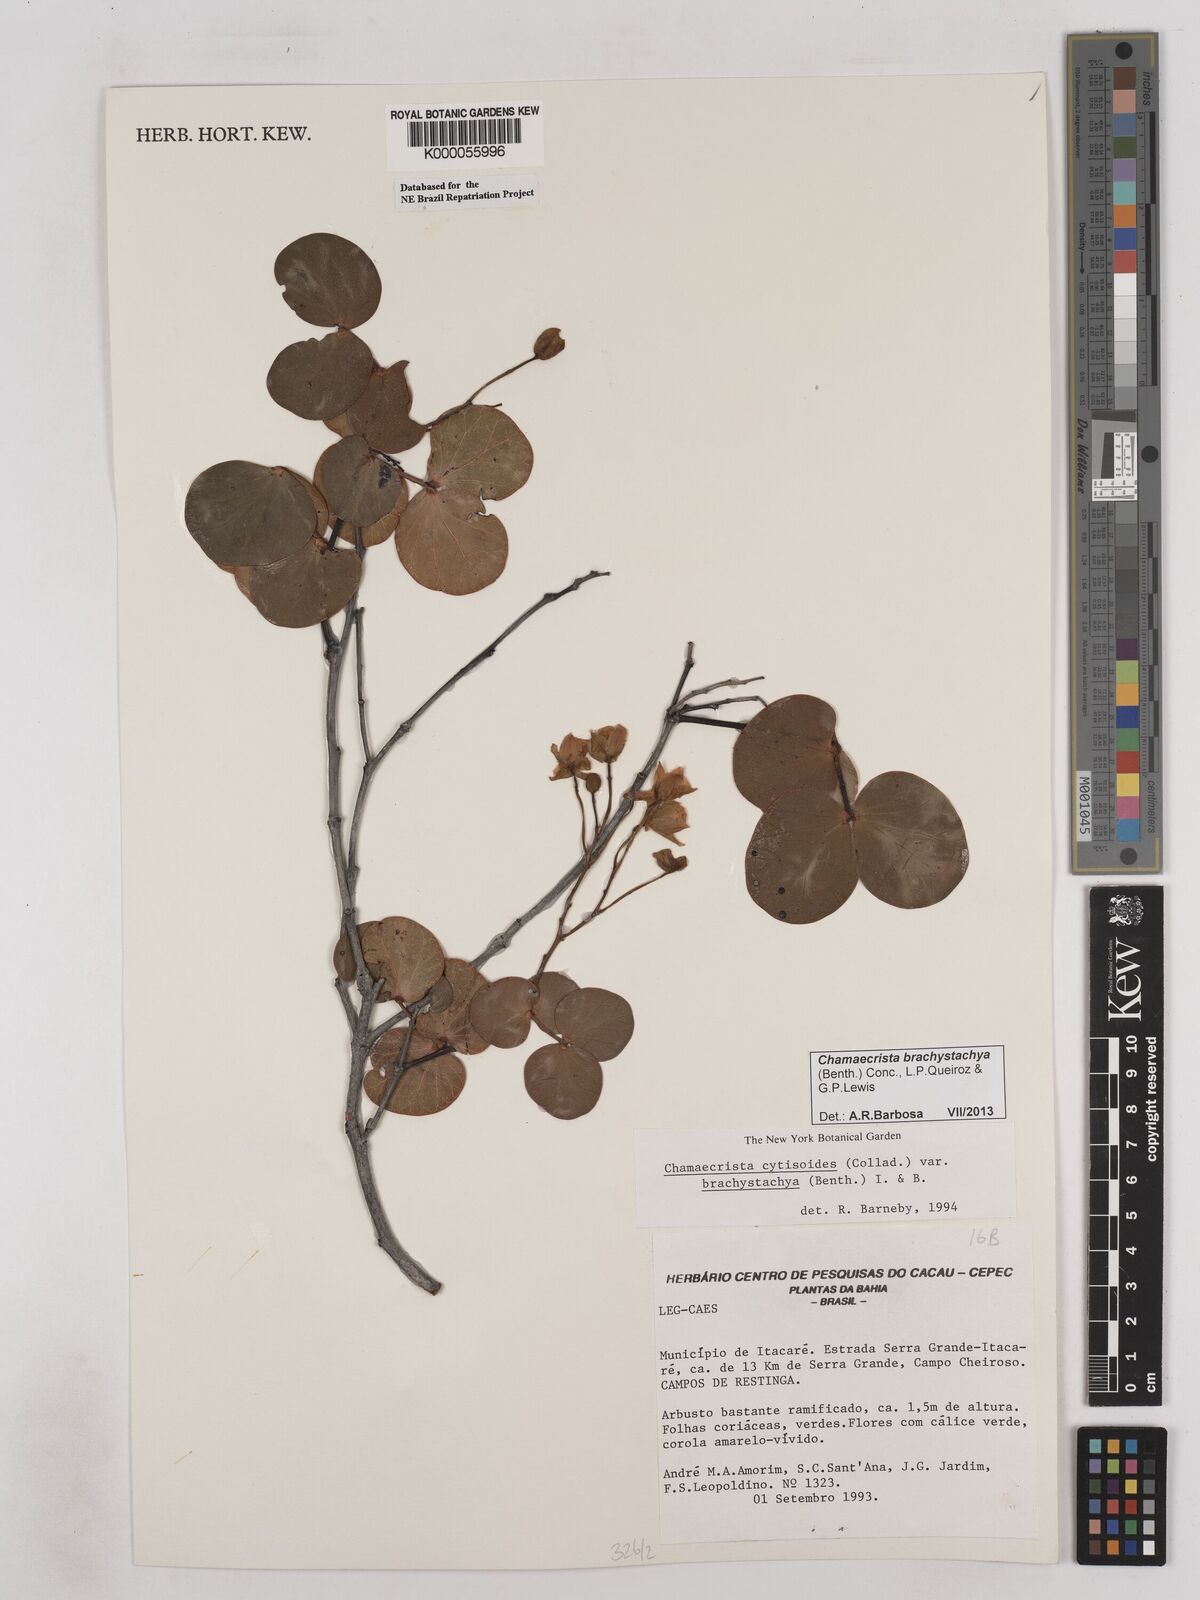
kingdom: Plantae
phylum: Tracheophyta
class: Magnoliopsida
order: Fabales
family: Fabaceae
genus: Chamaecrista
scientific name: Chamaecrista cytisoides
